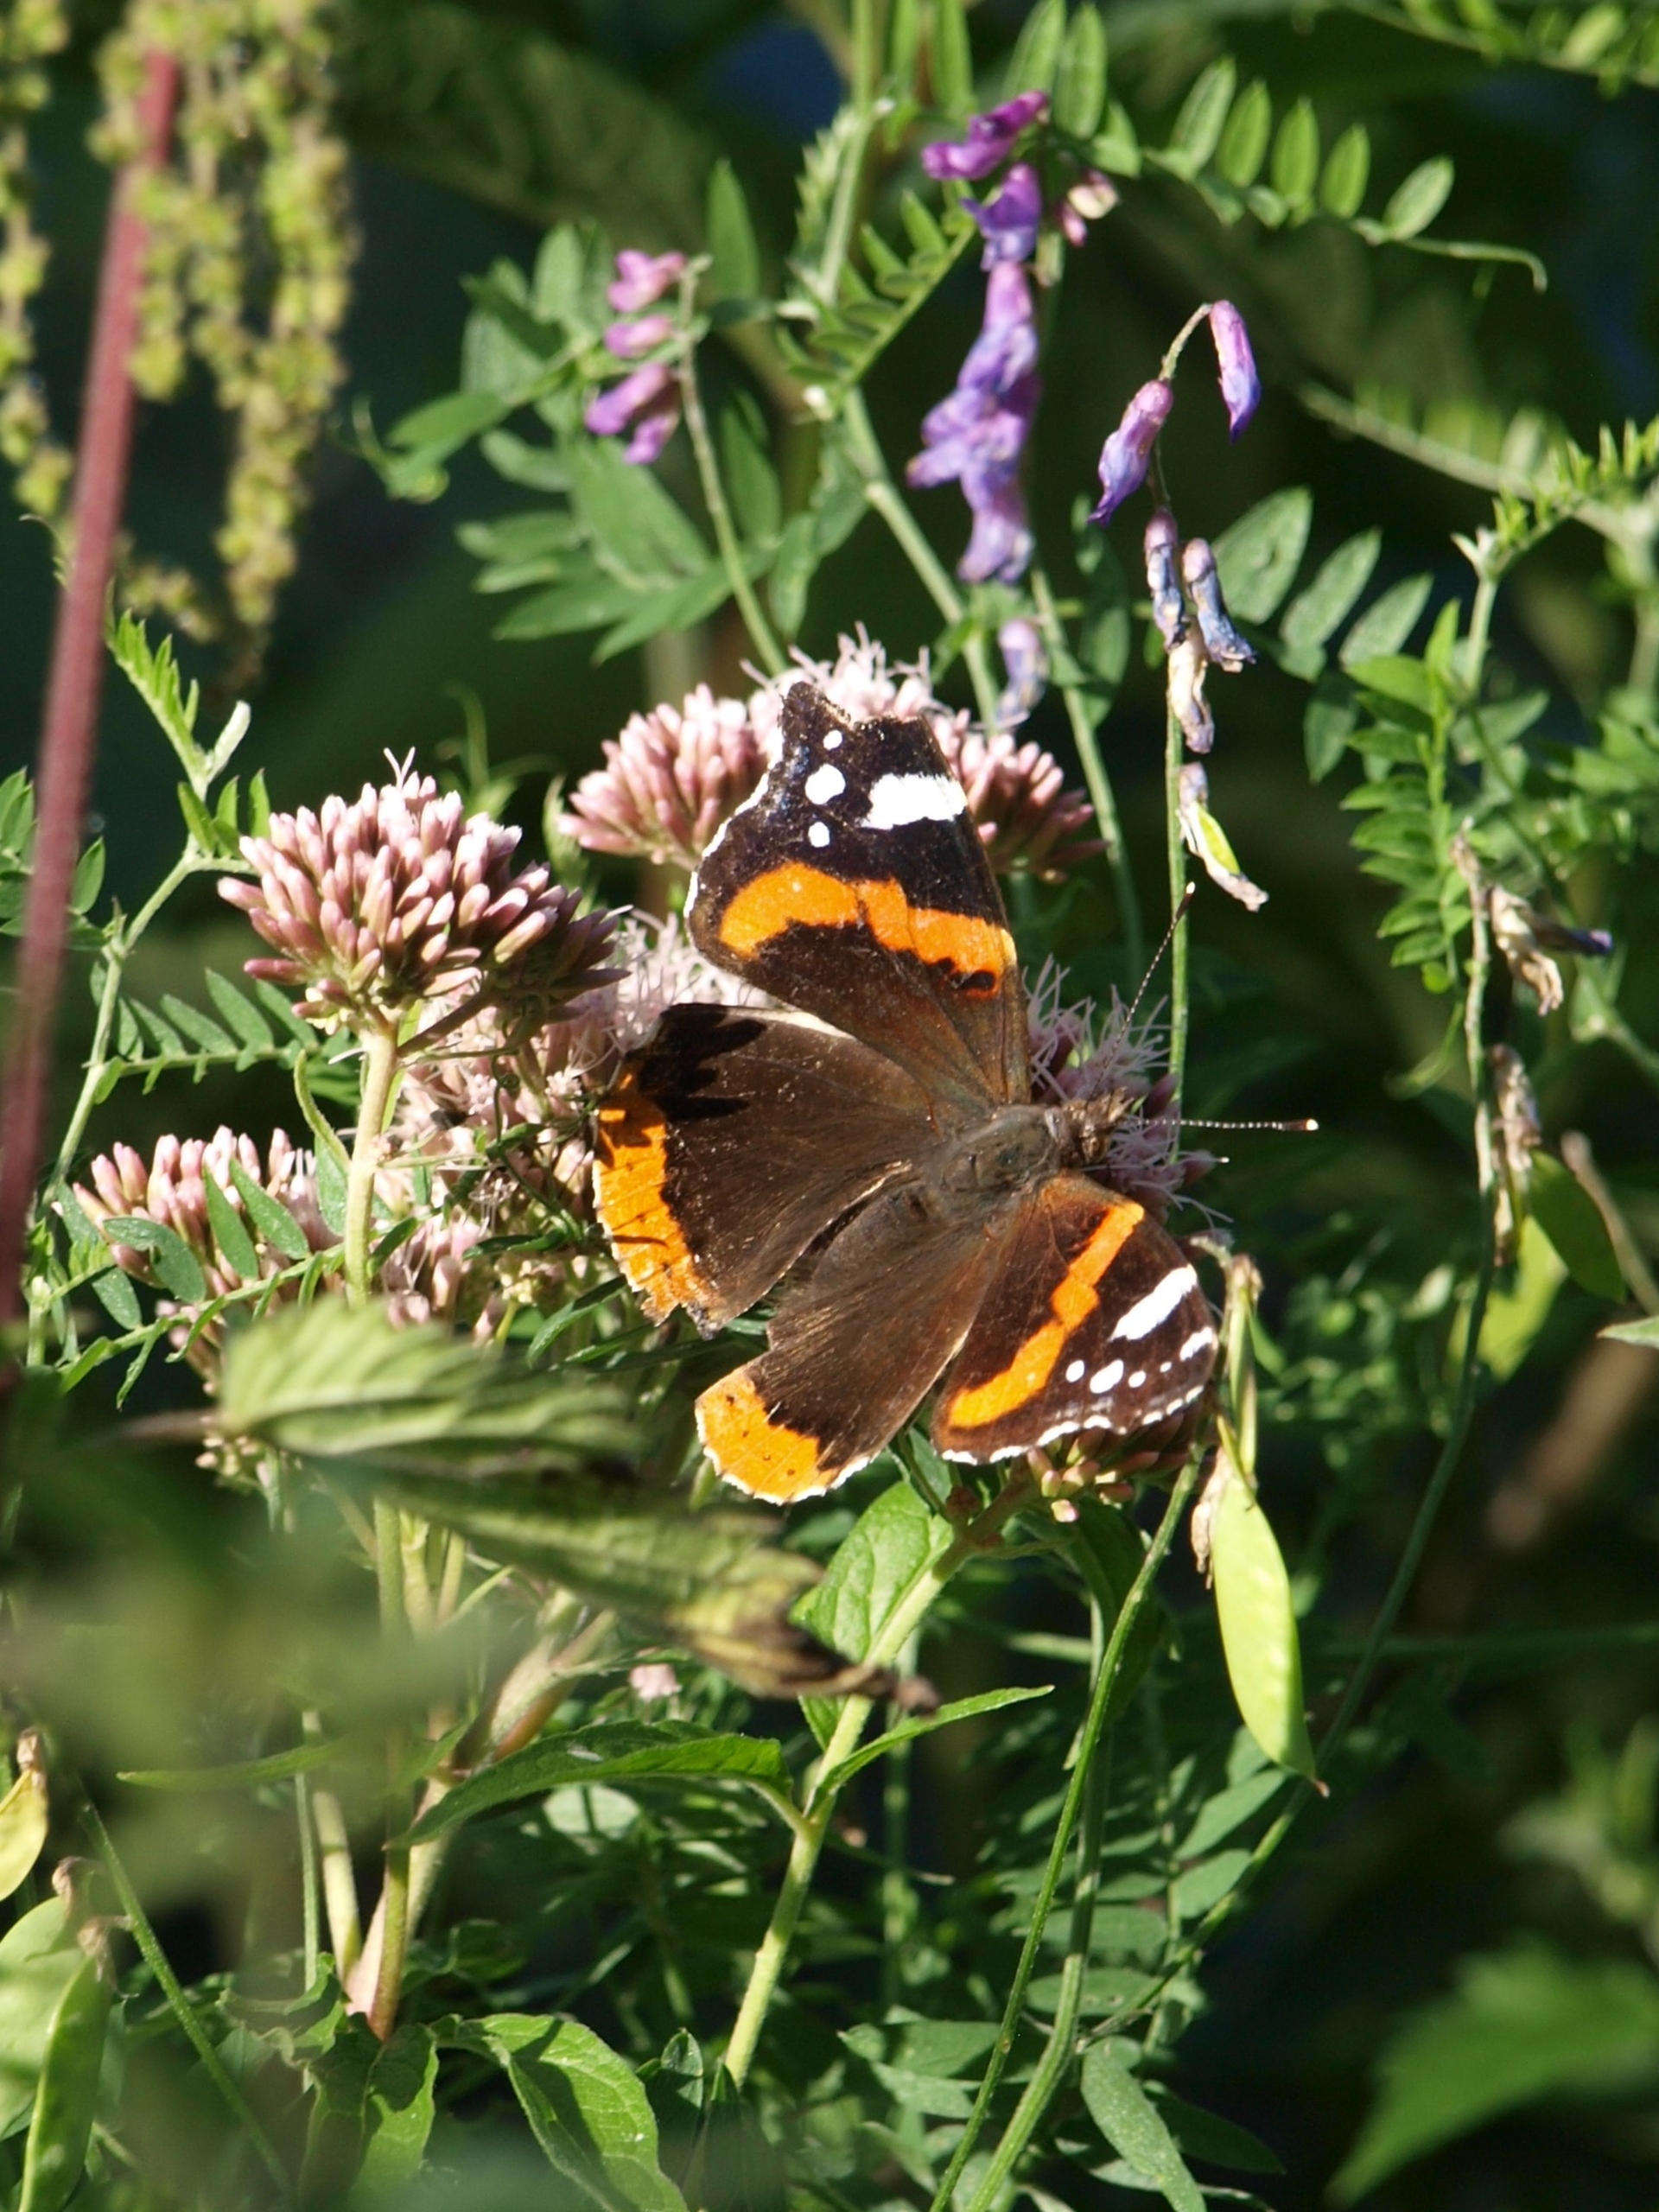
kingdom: Animalia
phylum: Arthropoda
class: Insecta
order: Lepidoptera
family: Nymphalidae
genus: Vanessa
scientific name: Vanessa atalanta
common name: Admiral
